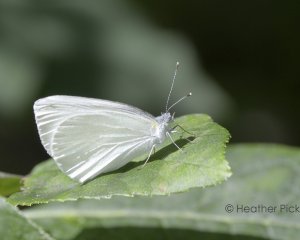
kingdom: Animalia
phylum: Arthropoda
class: Insecta
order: Lepidoptera
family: Pieridae
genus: Pieris
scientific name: Pieris oleracea
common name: Mustard White
